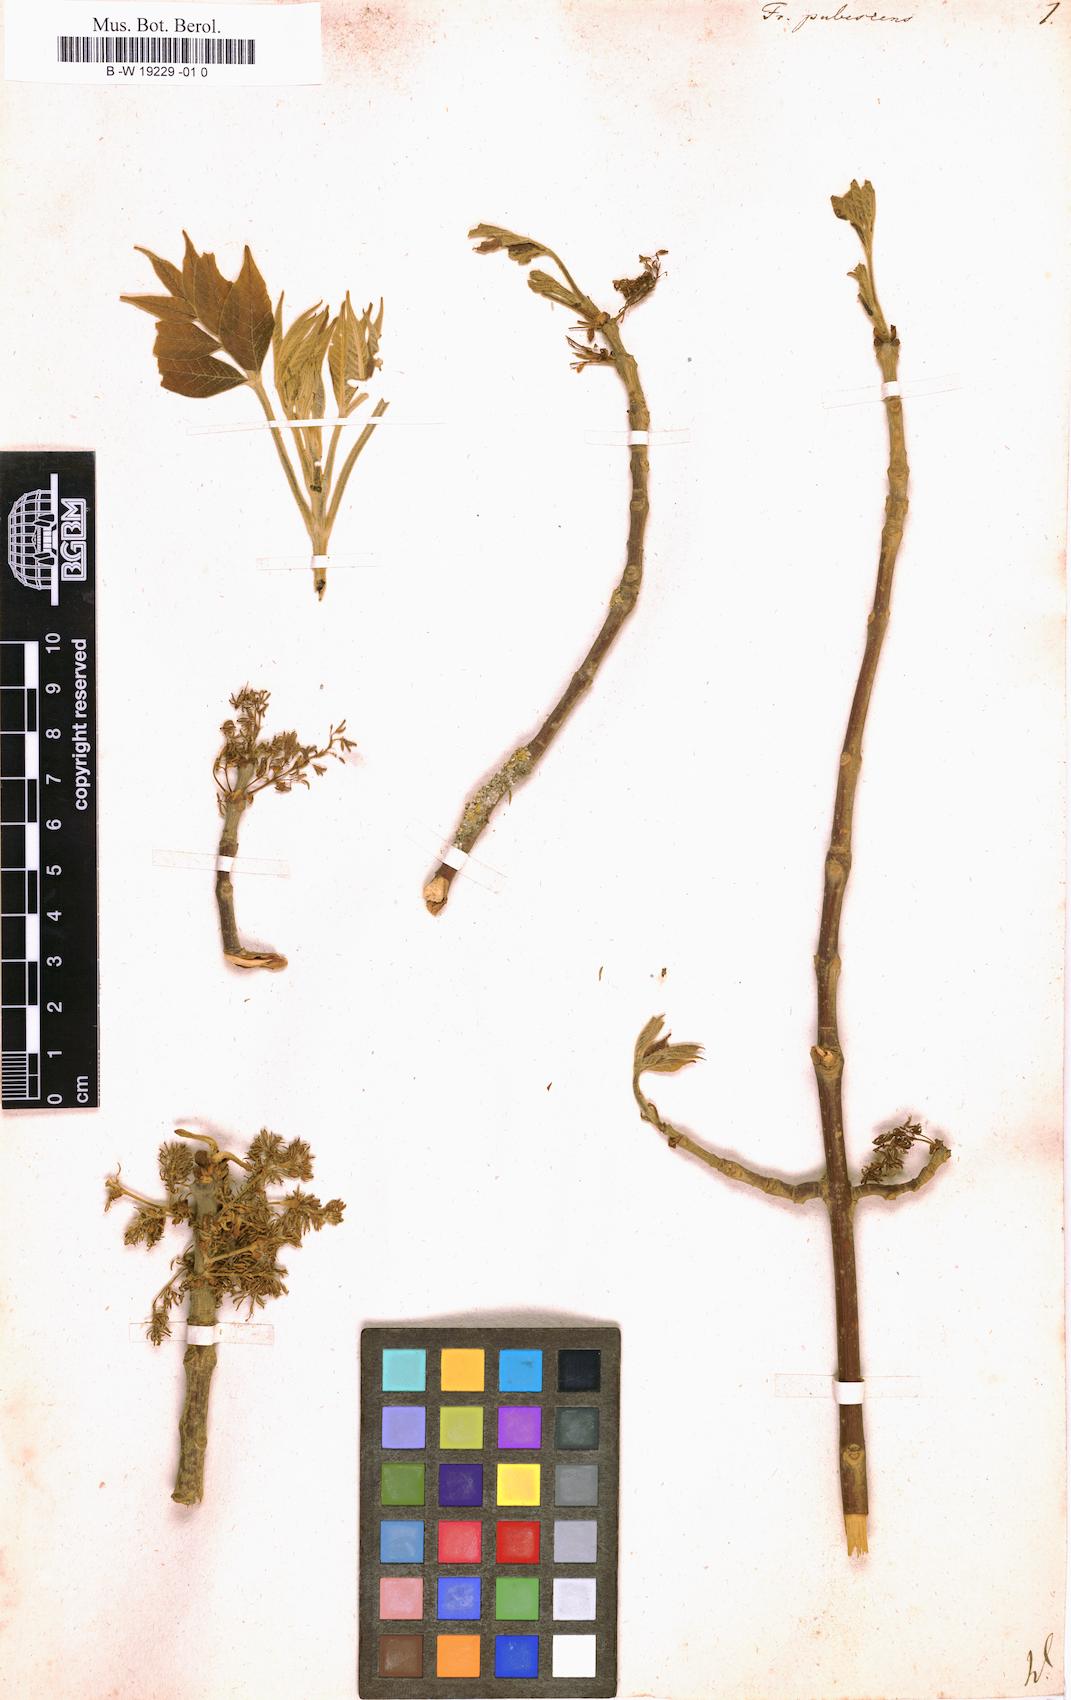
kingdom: Plantae
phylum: Tracheophyta
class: Magnoliopsida
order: Lamiales
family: Oleaceae
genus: Fraxinus
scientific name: Fraxinus pennsylvanica
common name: Green ash
